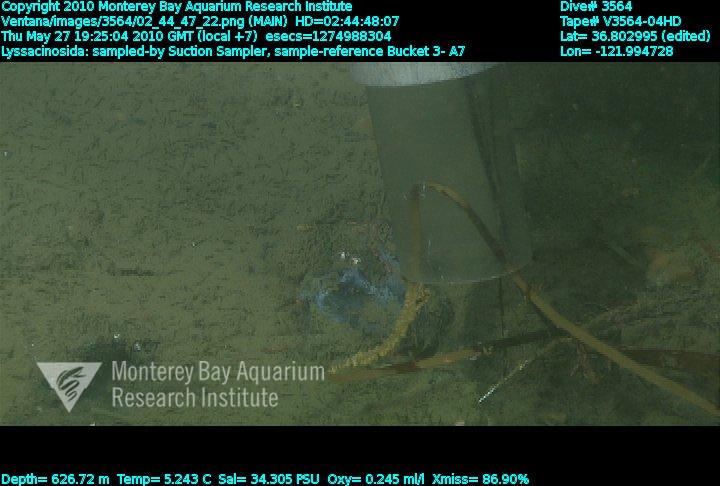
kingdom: Animalia
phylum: Porifera
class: Hexactinellida
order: Lyssacinosida
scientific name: Lyssacinosida
